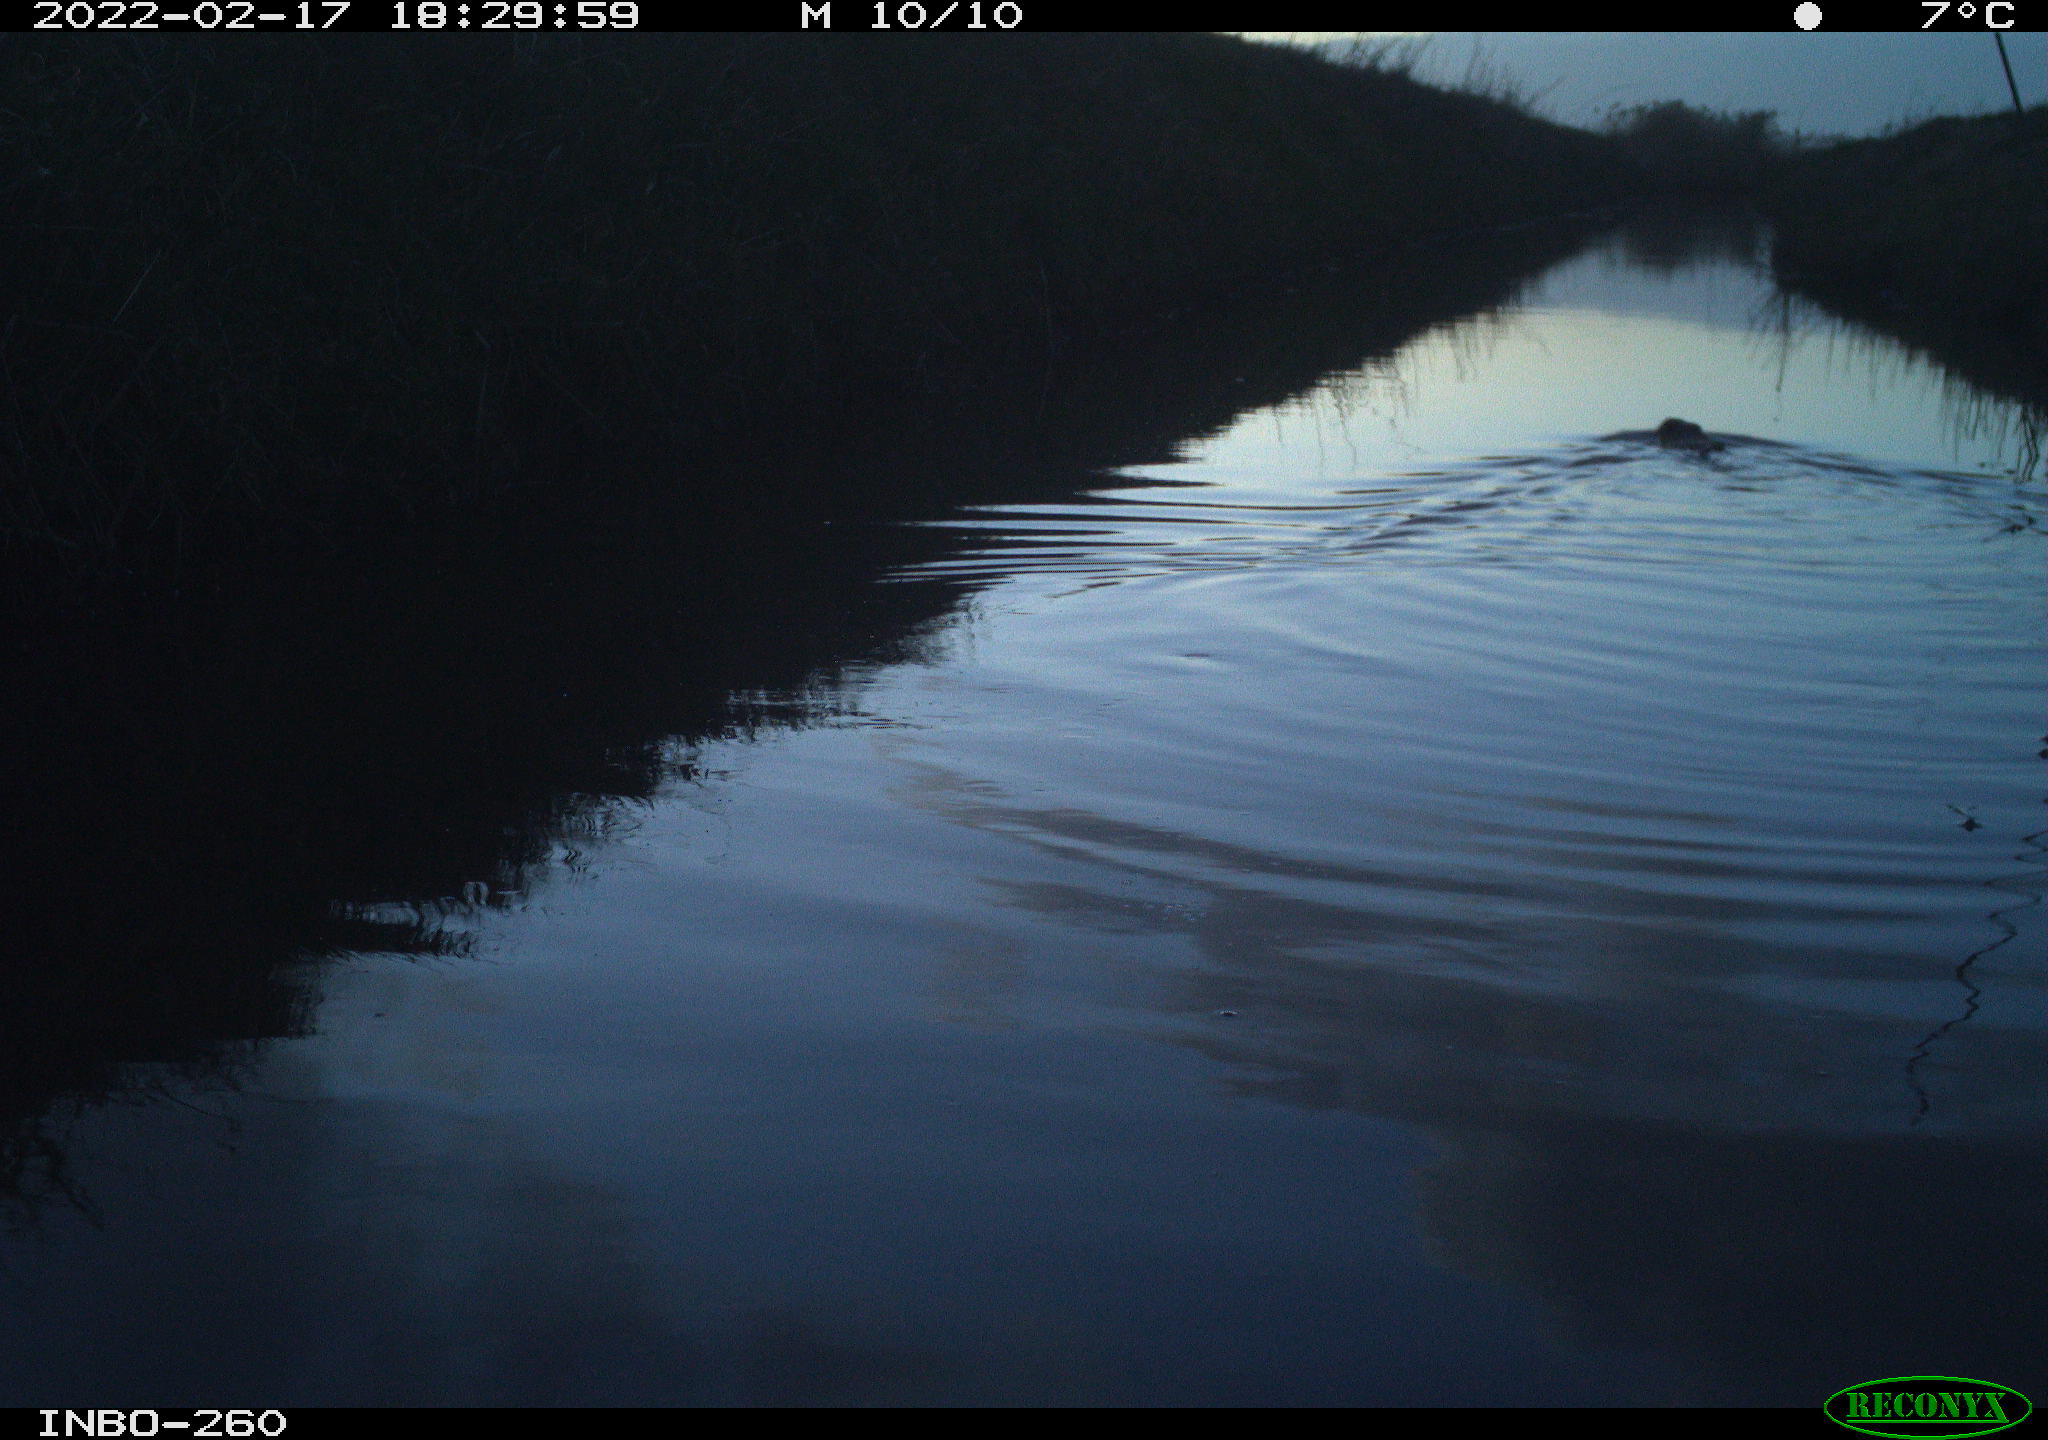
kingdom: Animalia
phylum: Chordata
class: Mammalia
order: Rodentia
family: Cricetidae
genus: Ondatra
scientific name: Ondatra zibethicus
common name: Muskrat
